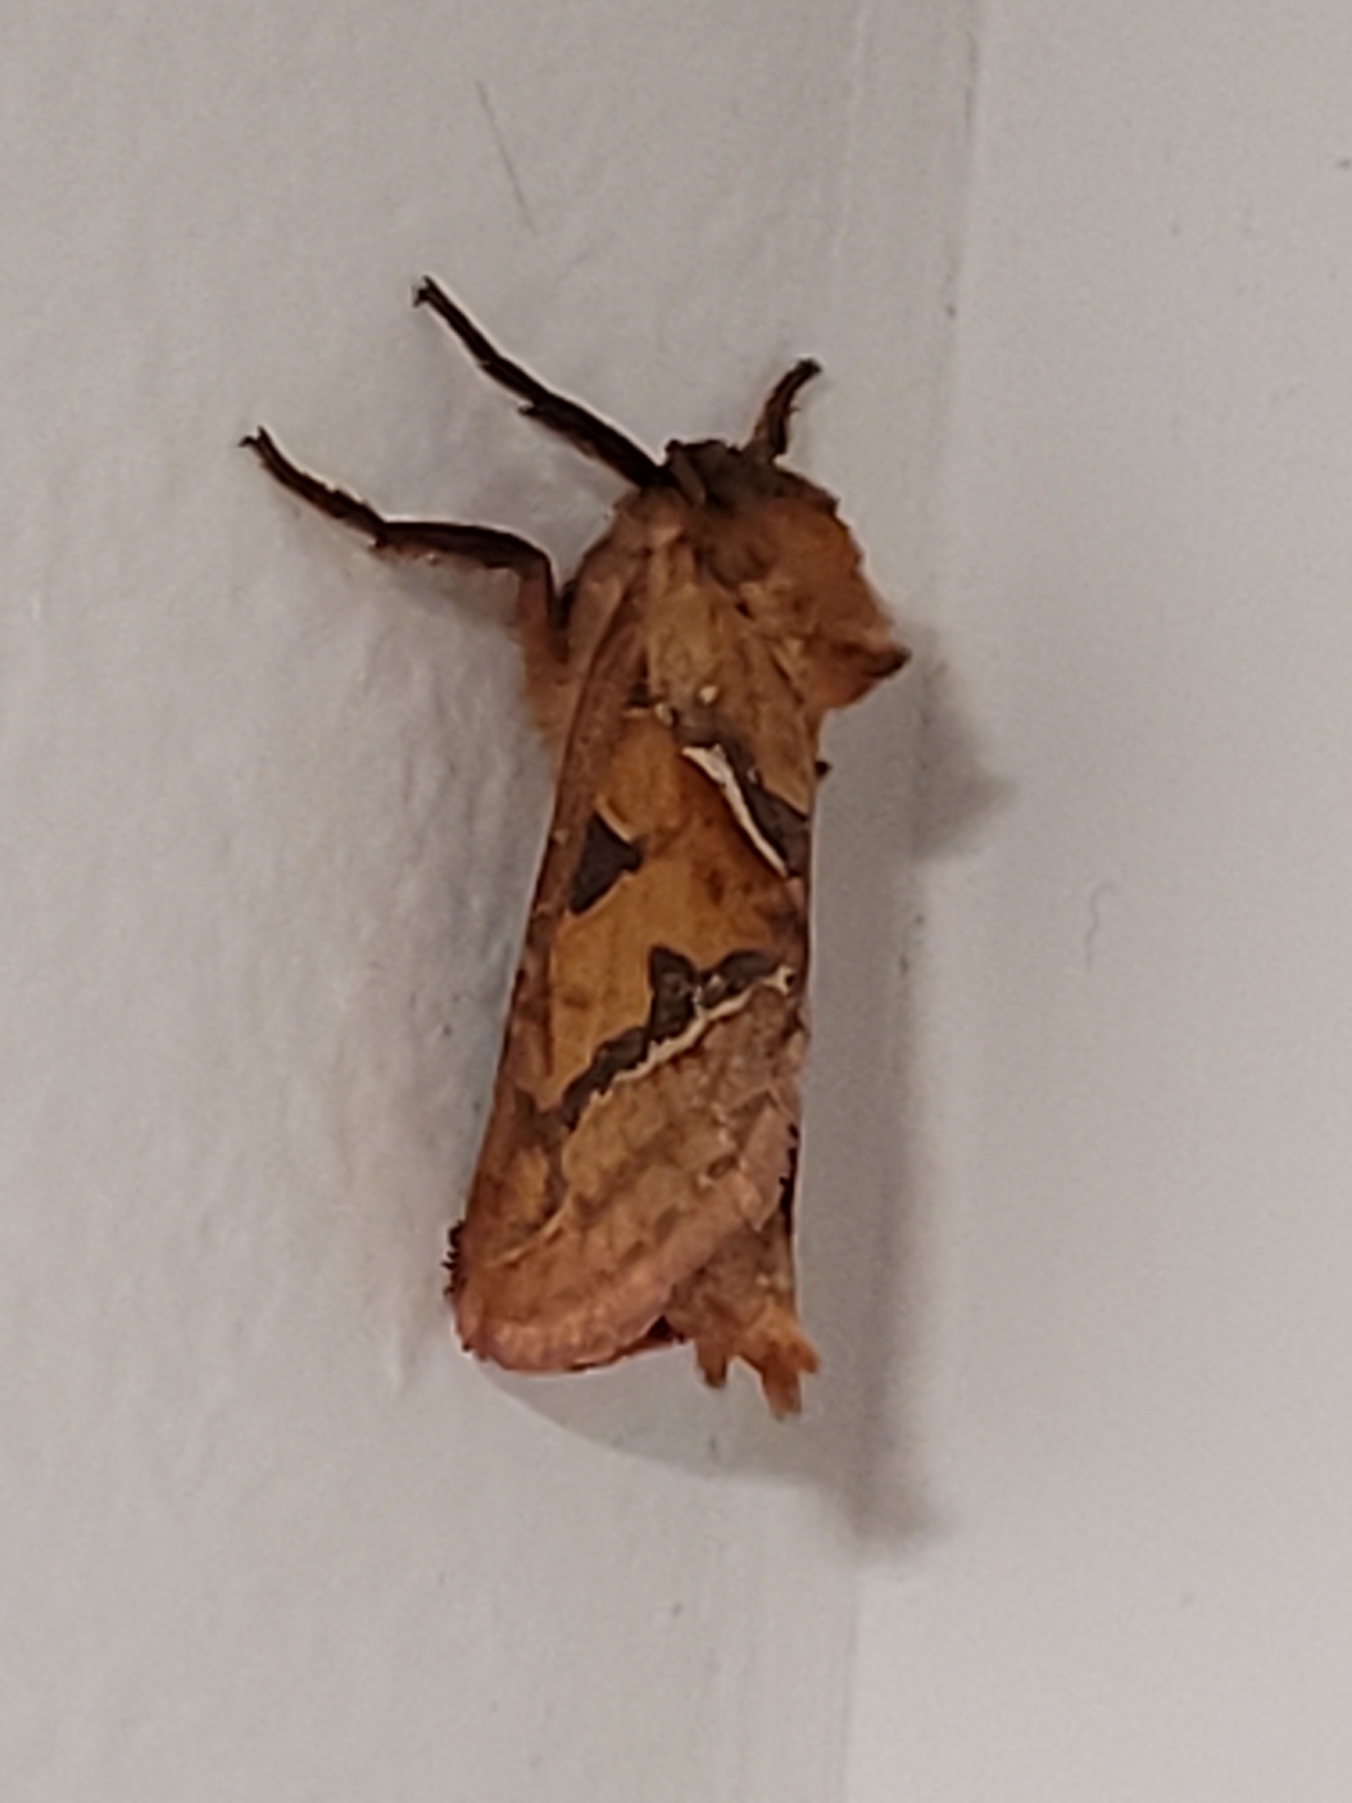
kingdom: Animalia
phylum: Arthropoda
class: Insecta
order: Lepidoptera
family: Hepialidae
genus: Triodia
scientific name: Triodia sylvina
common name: Skræpperodæder
